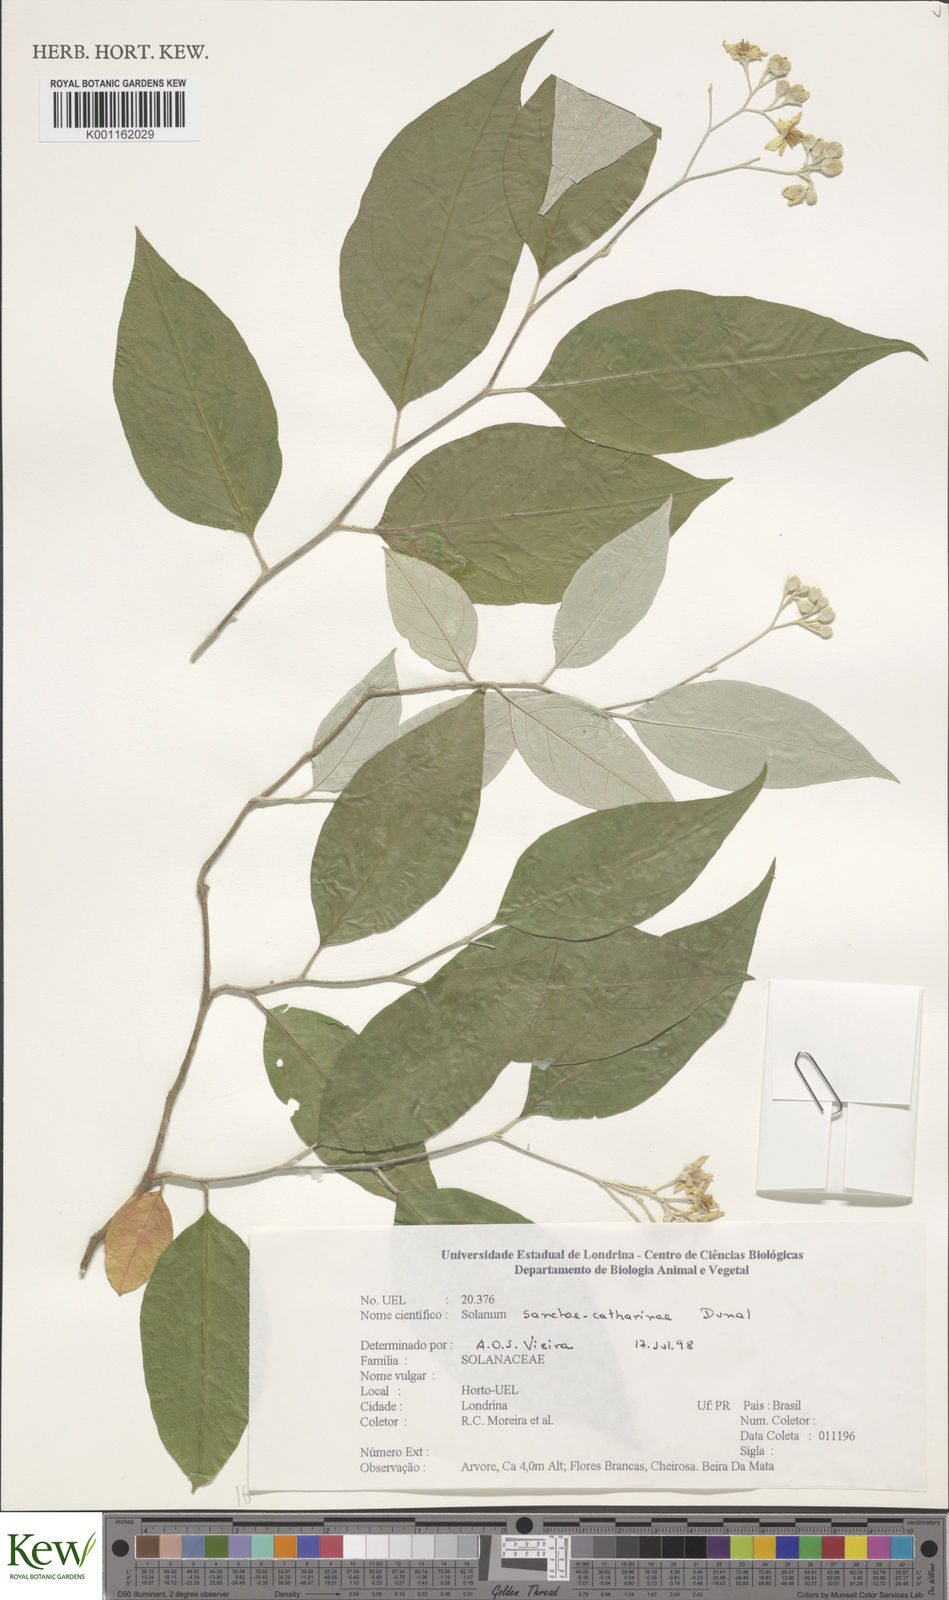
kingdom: Plantae
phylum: Tracheophyta
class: Magnoliopsida
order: Solanales
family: Solanaceae
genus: Solanum
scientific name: Solanum sanctae-catharinae
